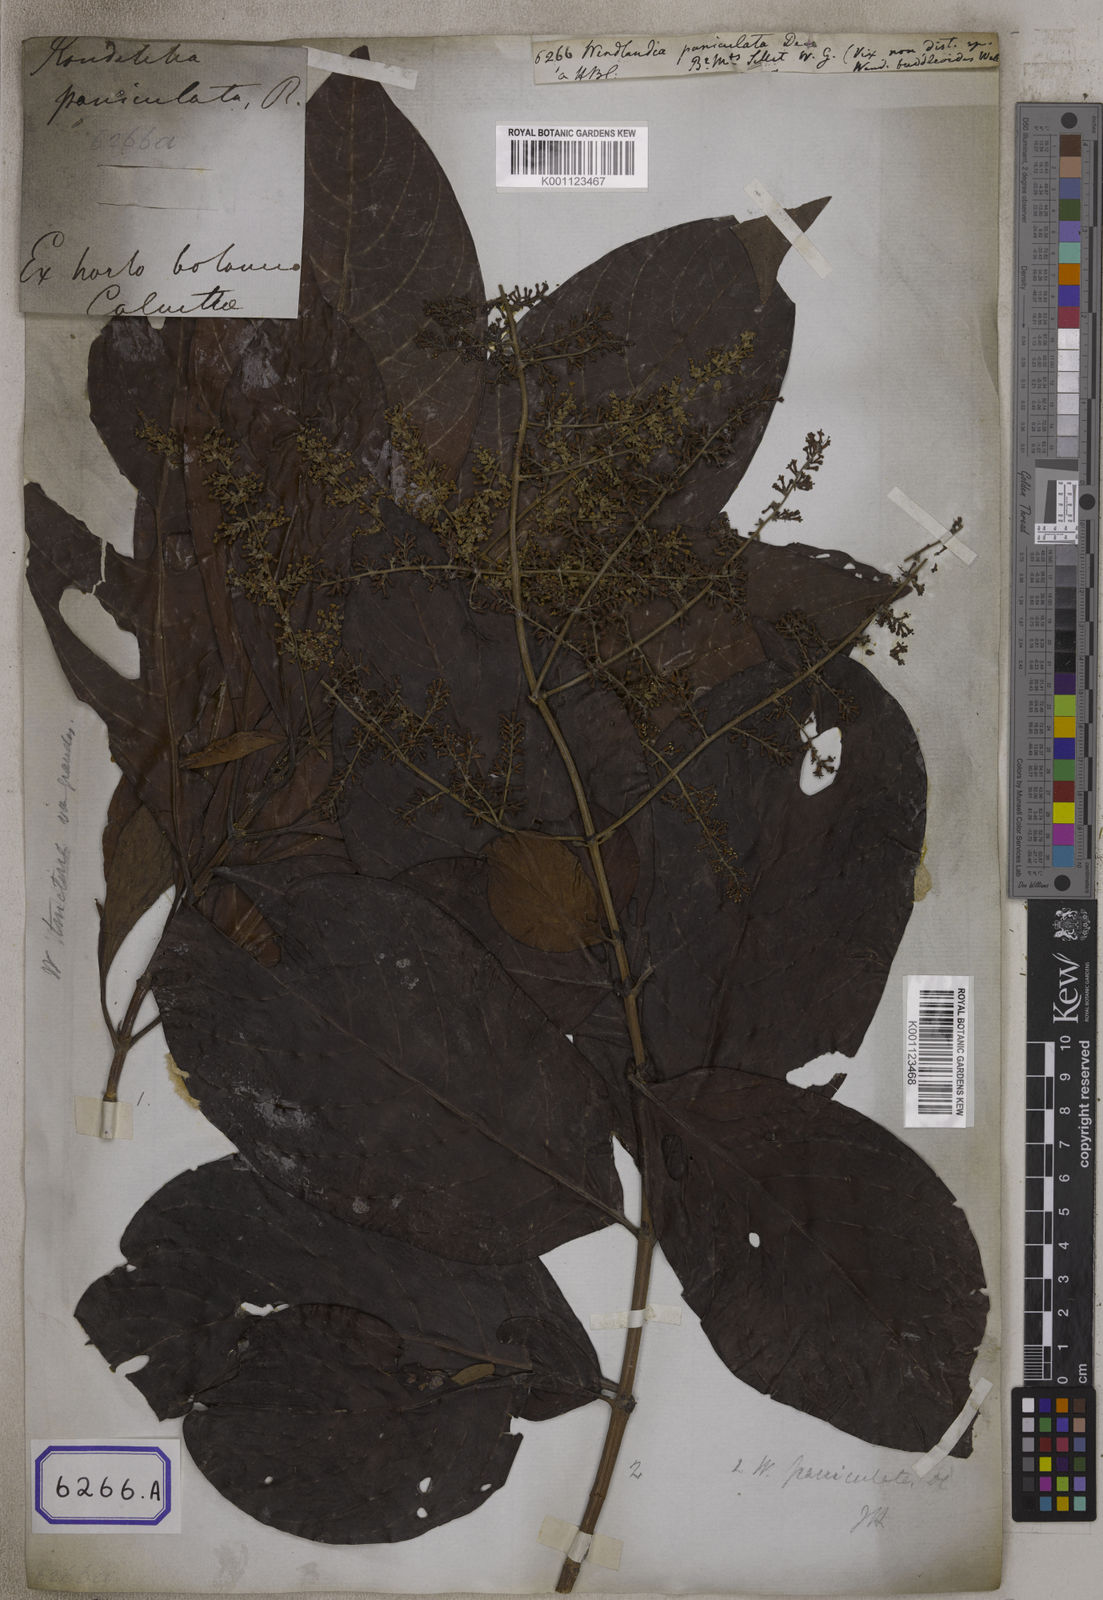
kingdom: Plantae
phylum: Tracheophyta
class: Magnoliopsida
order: Gentianales
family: Rubiaceae
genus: Wendlandia
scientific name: Wendlandia paniculata
